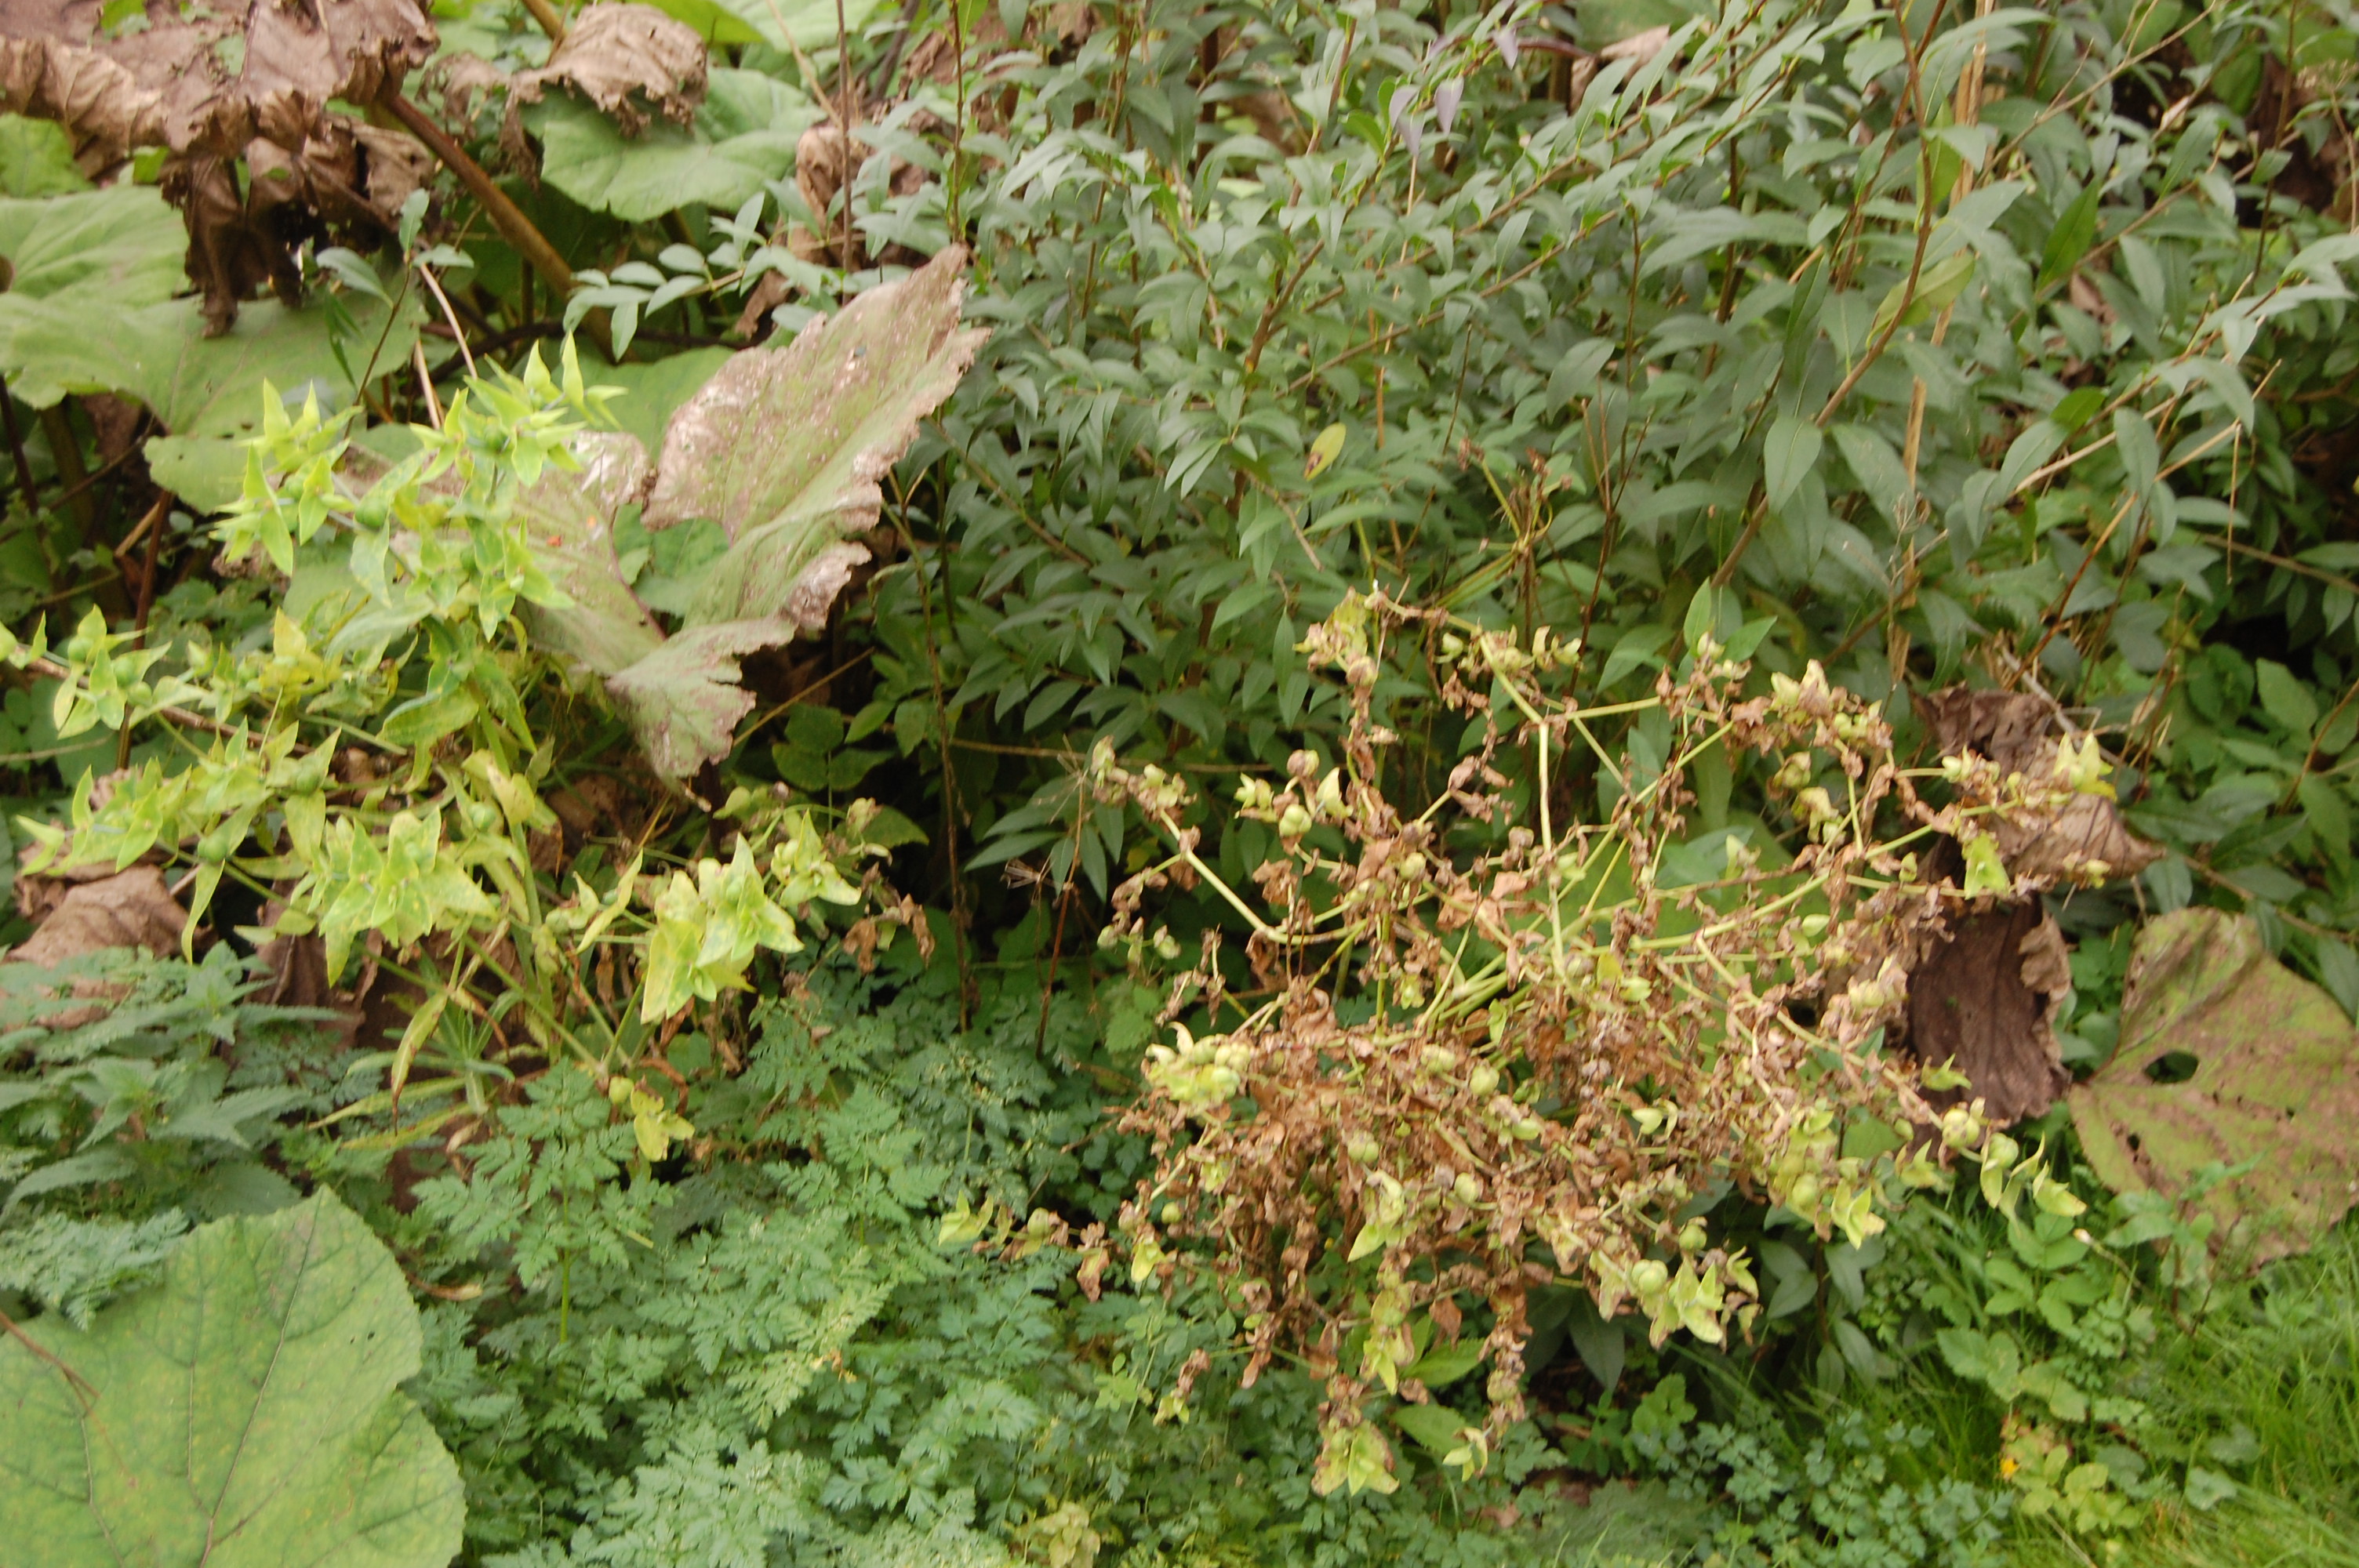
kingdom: Plantae
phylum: Tracheophyta
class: Magnoliopsida
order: Malpighiales
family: Euphorbiaceae
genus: Euphorbia
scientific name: Euphorbia lathyris
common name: Caper spurge
